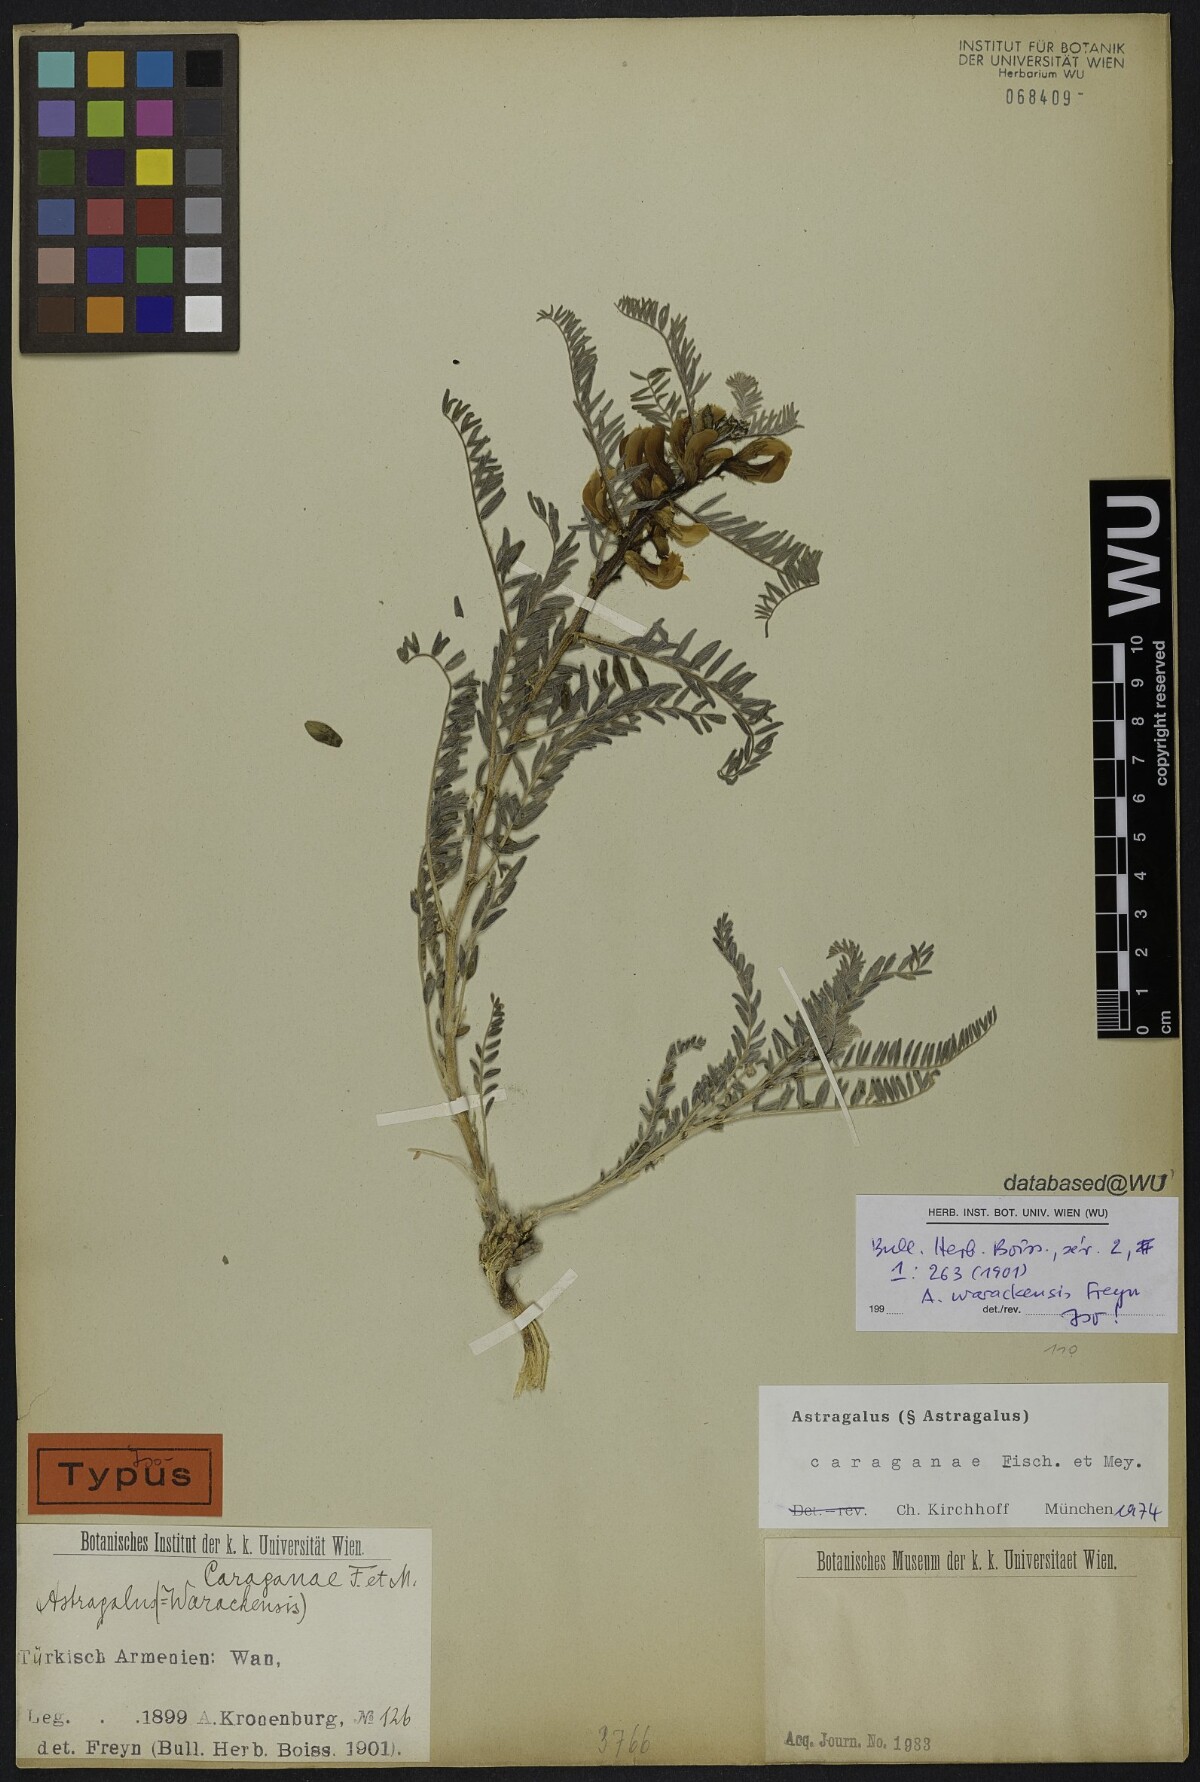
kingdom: Plantae
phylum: Tracheophyta
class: Magnoliopsida
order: Fabales
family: Fabaceae
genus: Astragalus
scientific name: Astragalus caraganae
